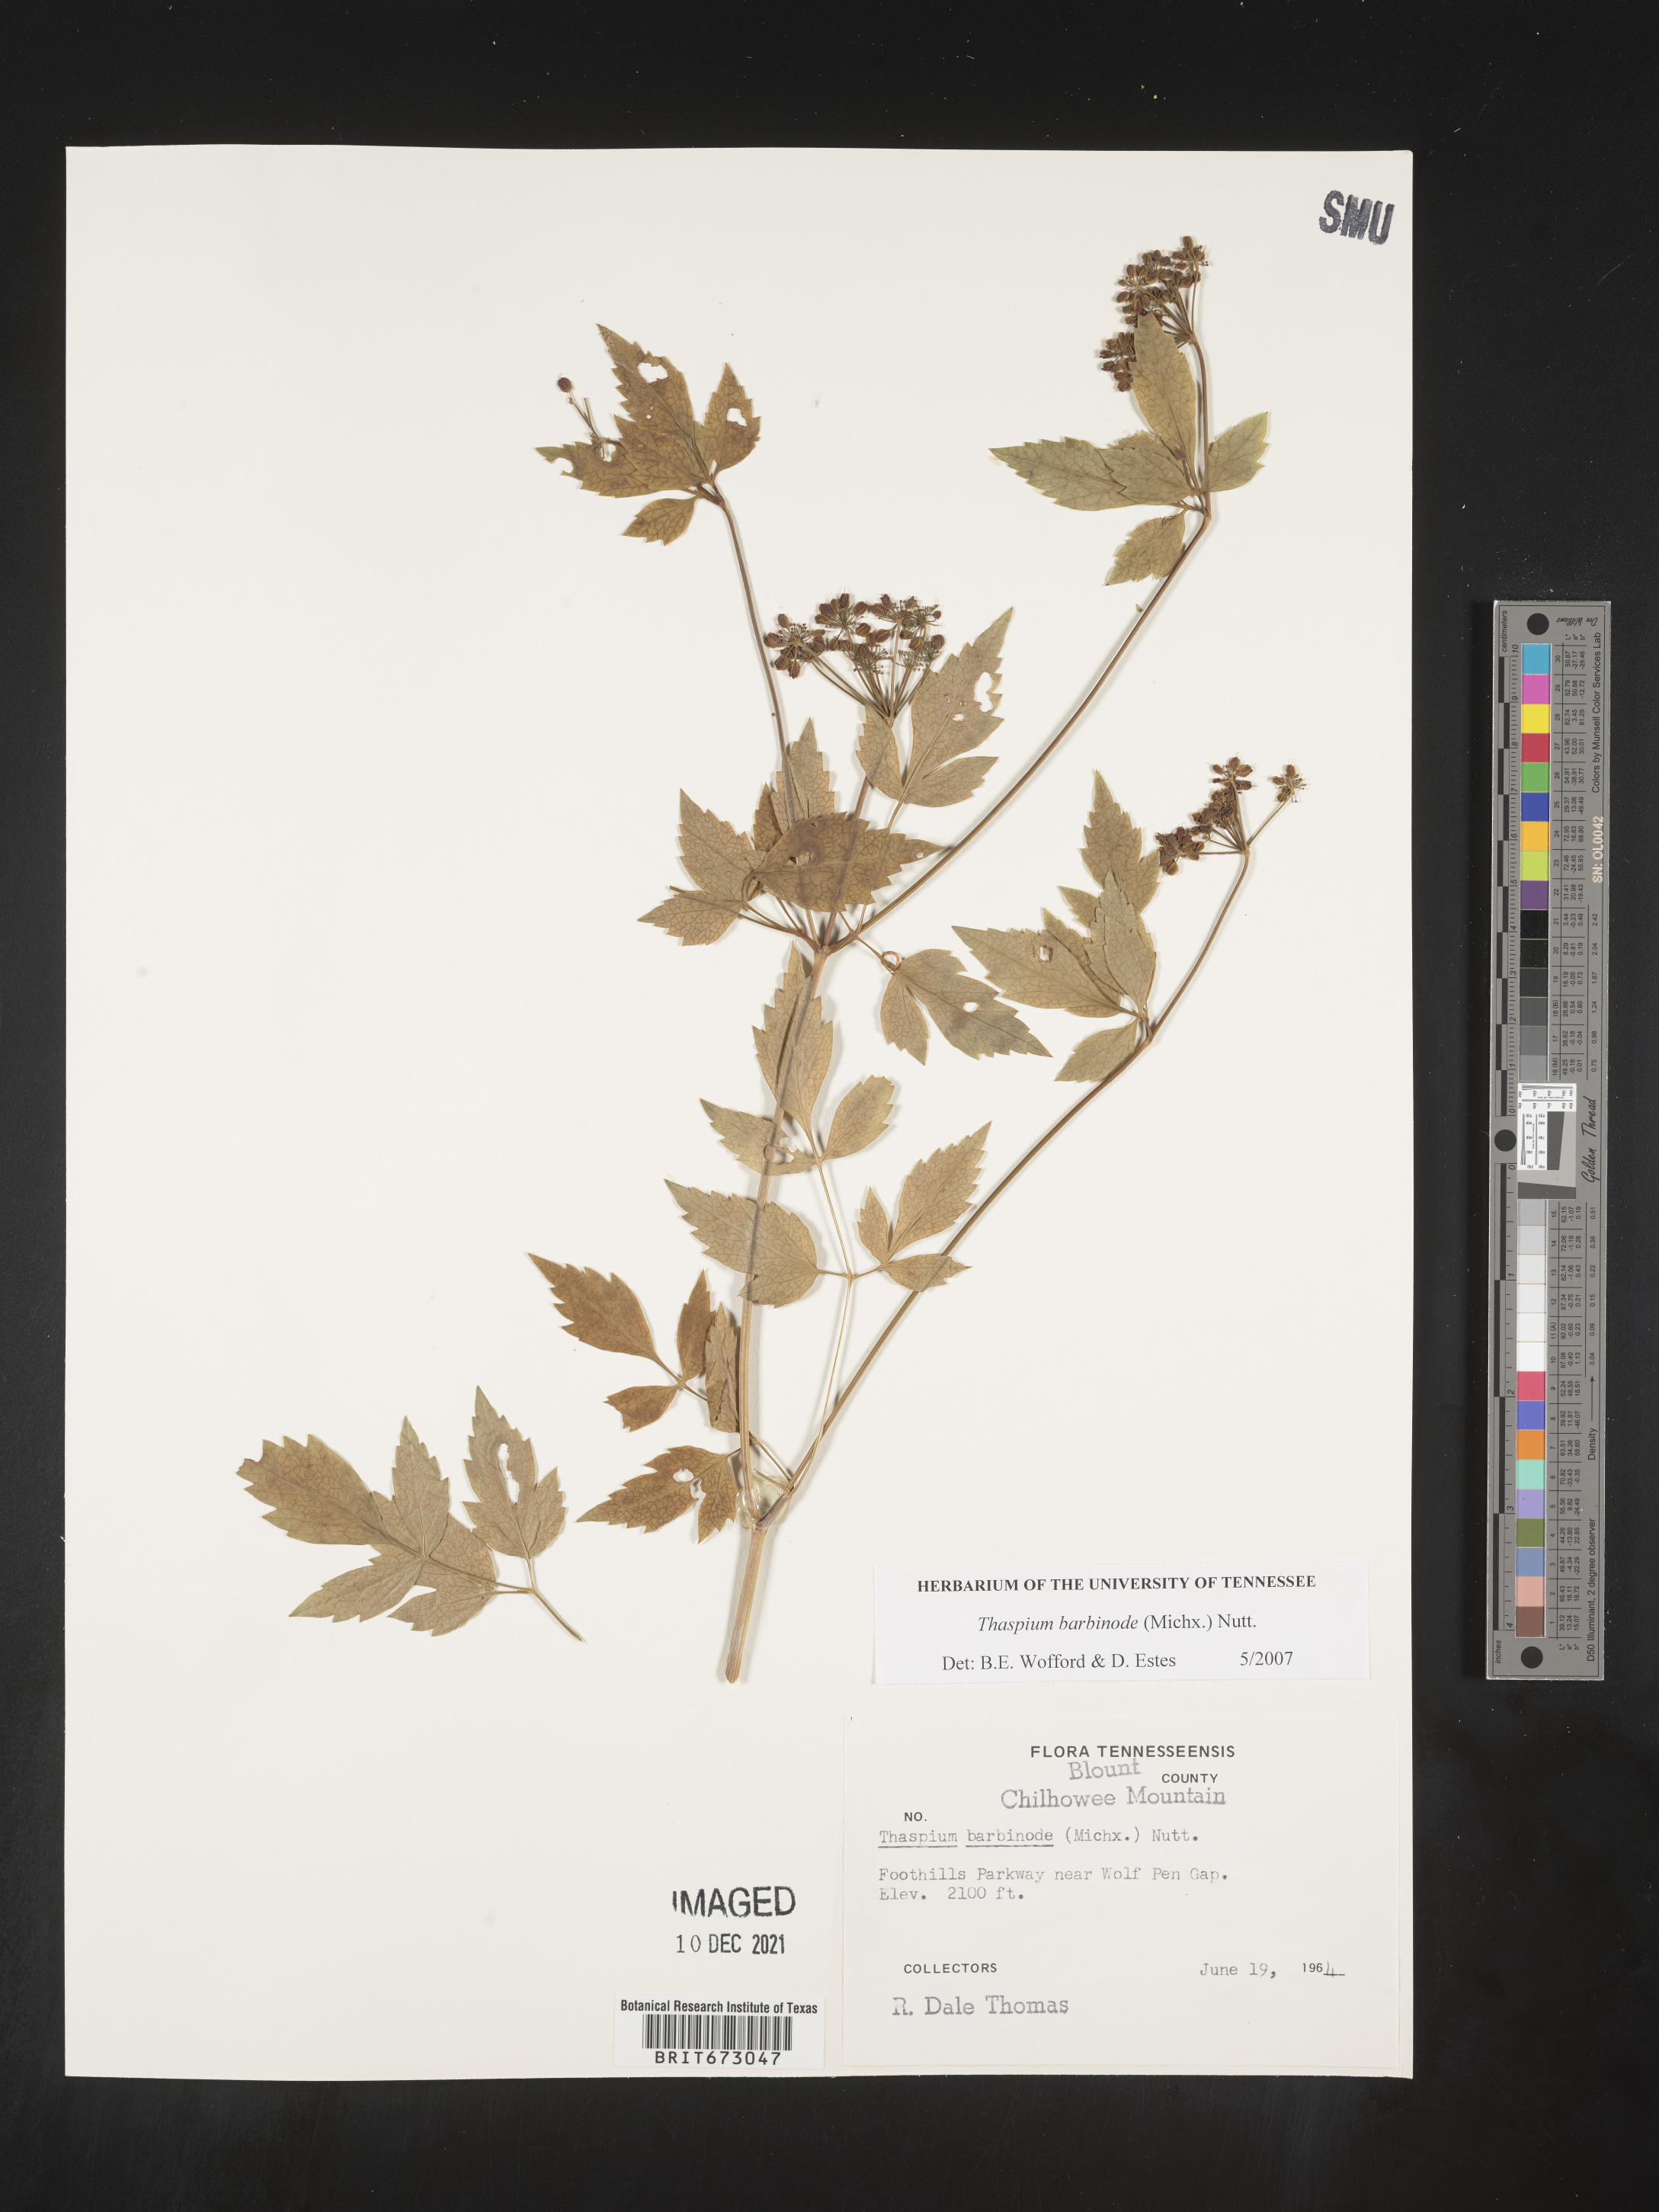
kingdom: Plantae
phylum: Tracheophyta
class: Magnoliopsida
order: Apiales
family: Apiaceae
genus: Thaspium
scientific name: Thaspium barbinode
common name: Bearded meadow-parsnip
